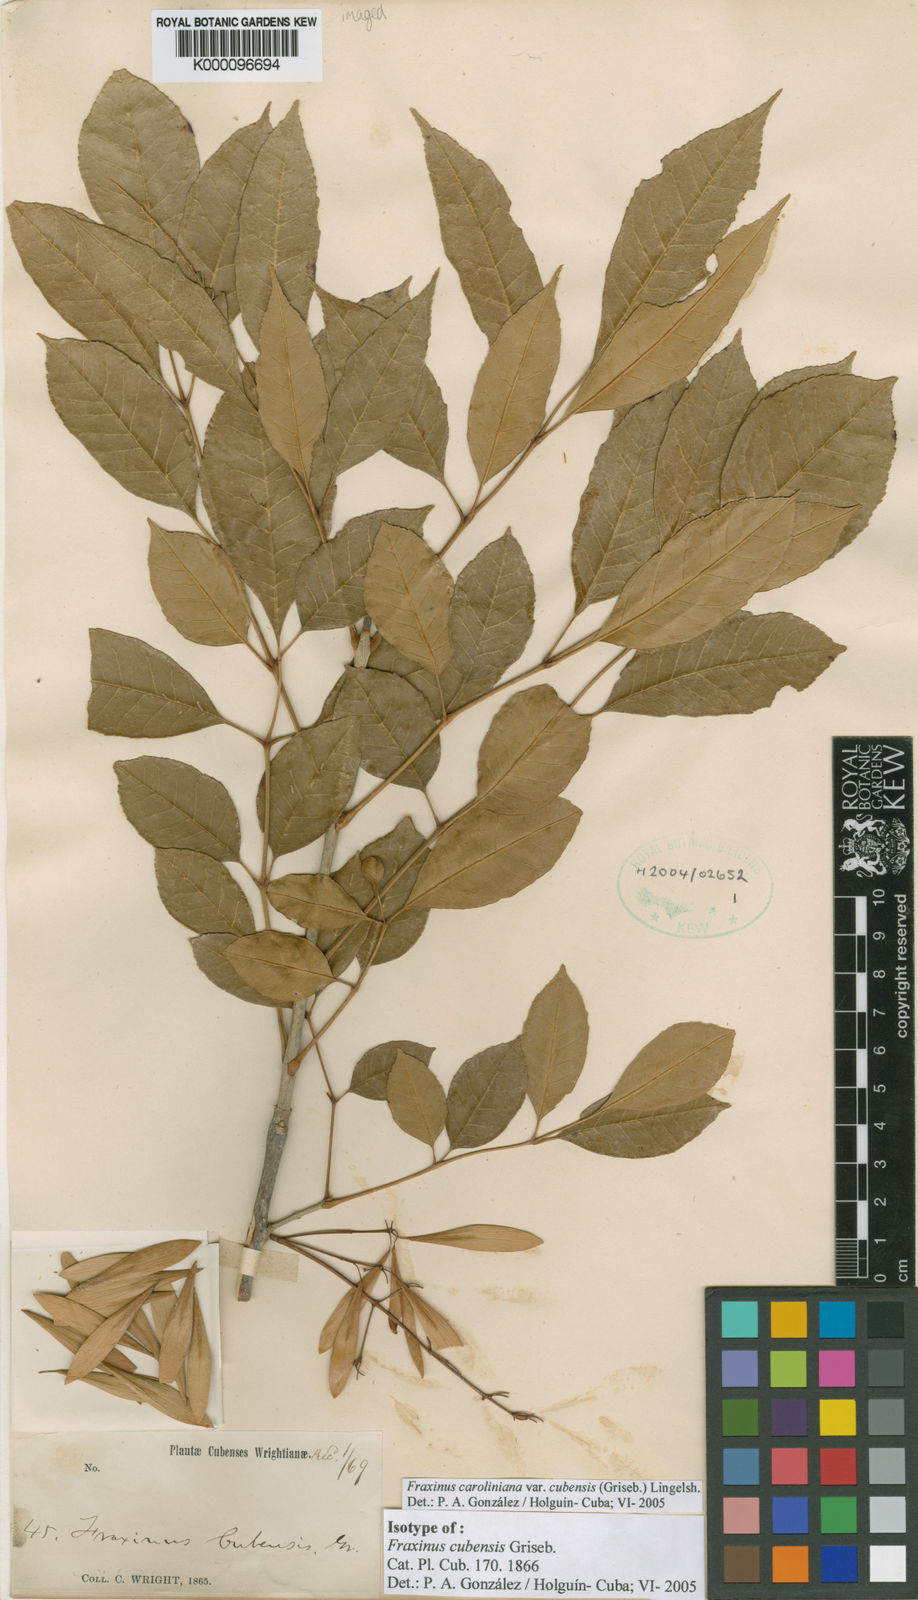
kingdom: Plantae
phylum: Tracheophyta
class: Magnoliopsida
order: Lamiales
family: Oleaceae
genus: Fraxinus
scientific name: Fraxinus caroliniana
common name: Carolina ash
